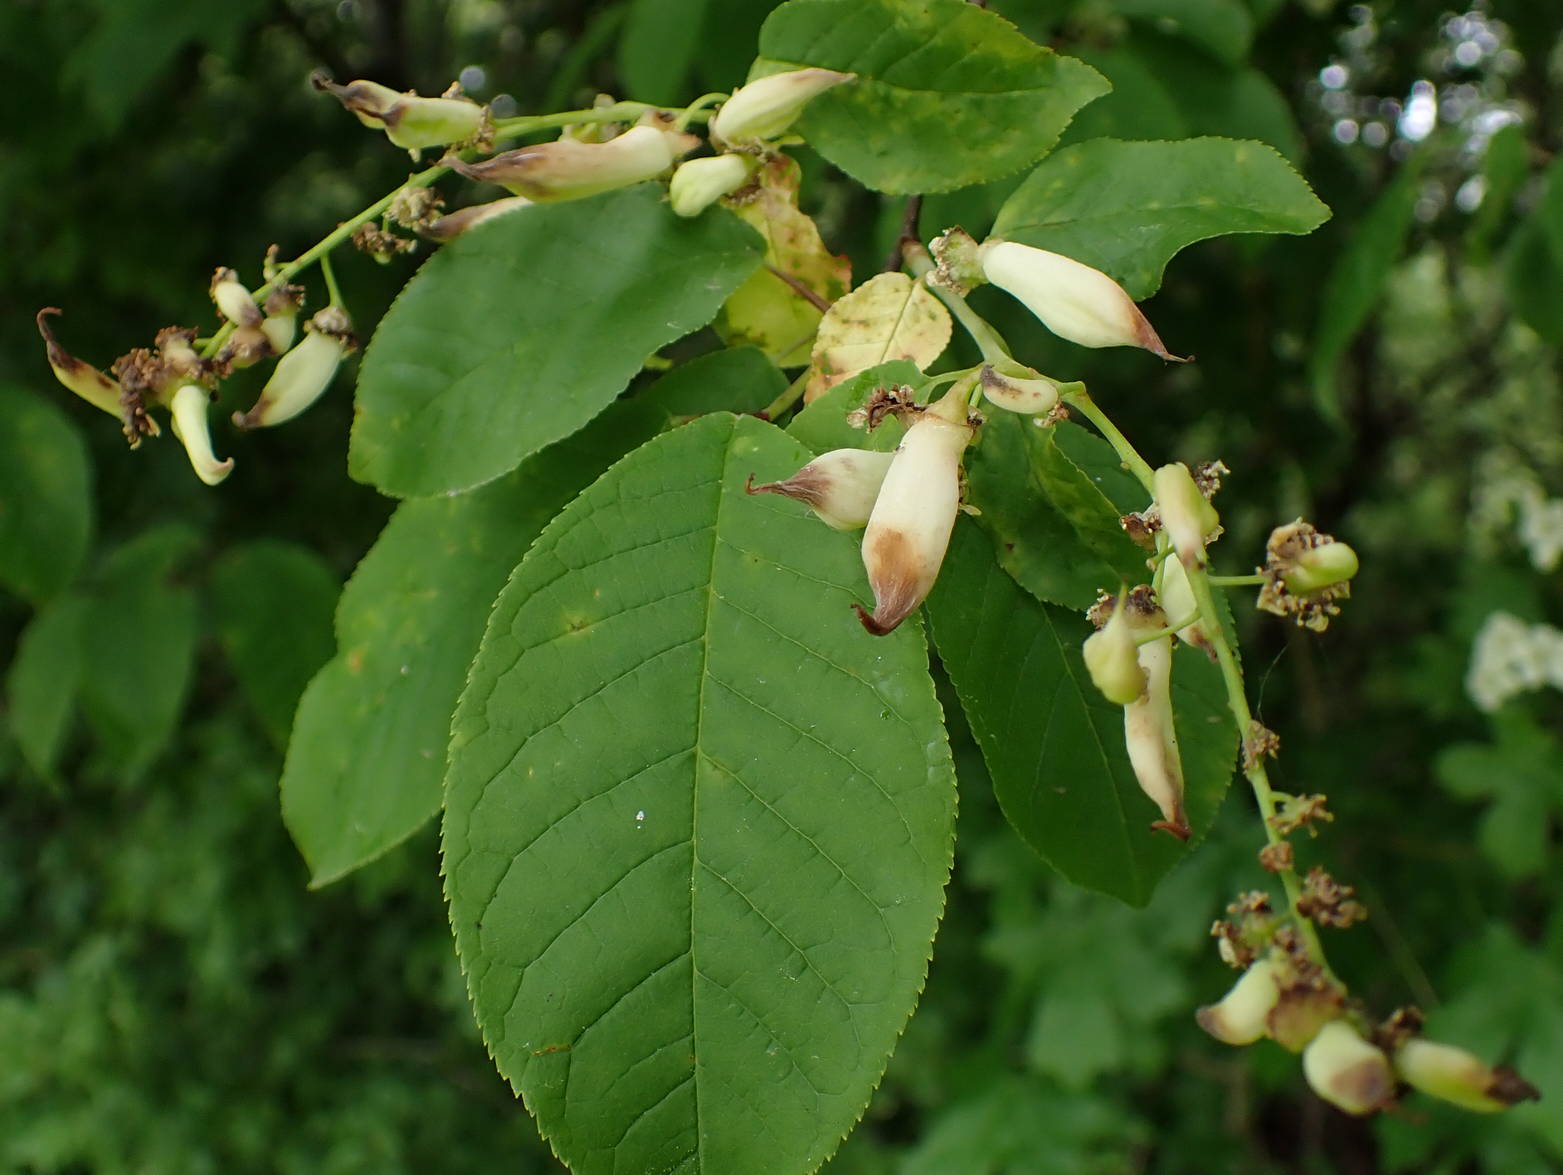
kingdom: Fungi
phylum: Ascomycota
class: Taphrinomycetes
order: Taphrinales
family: Taphrinaceae
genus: Taphrina
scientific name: Taphrina padi
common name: Bird cherry pocket
